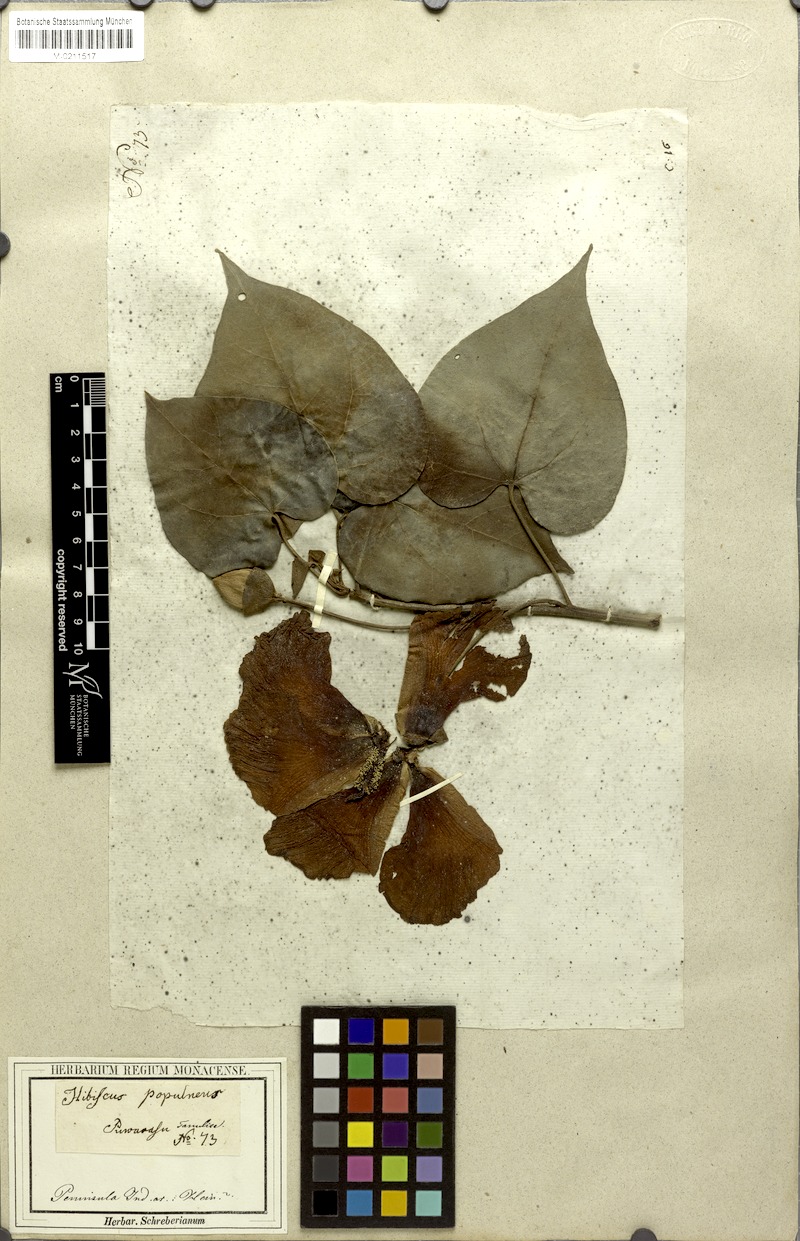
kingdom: Plantae
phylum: Tracheophyta
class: Magnoliopsida
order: Malvales
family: Malvaceae
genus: Thespesia
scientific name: Thespesia populnea
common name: Seaside mahoe
